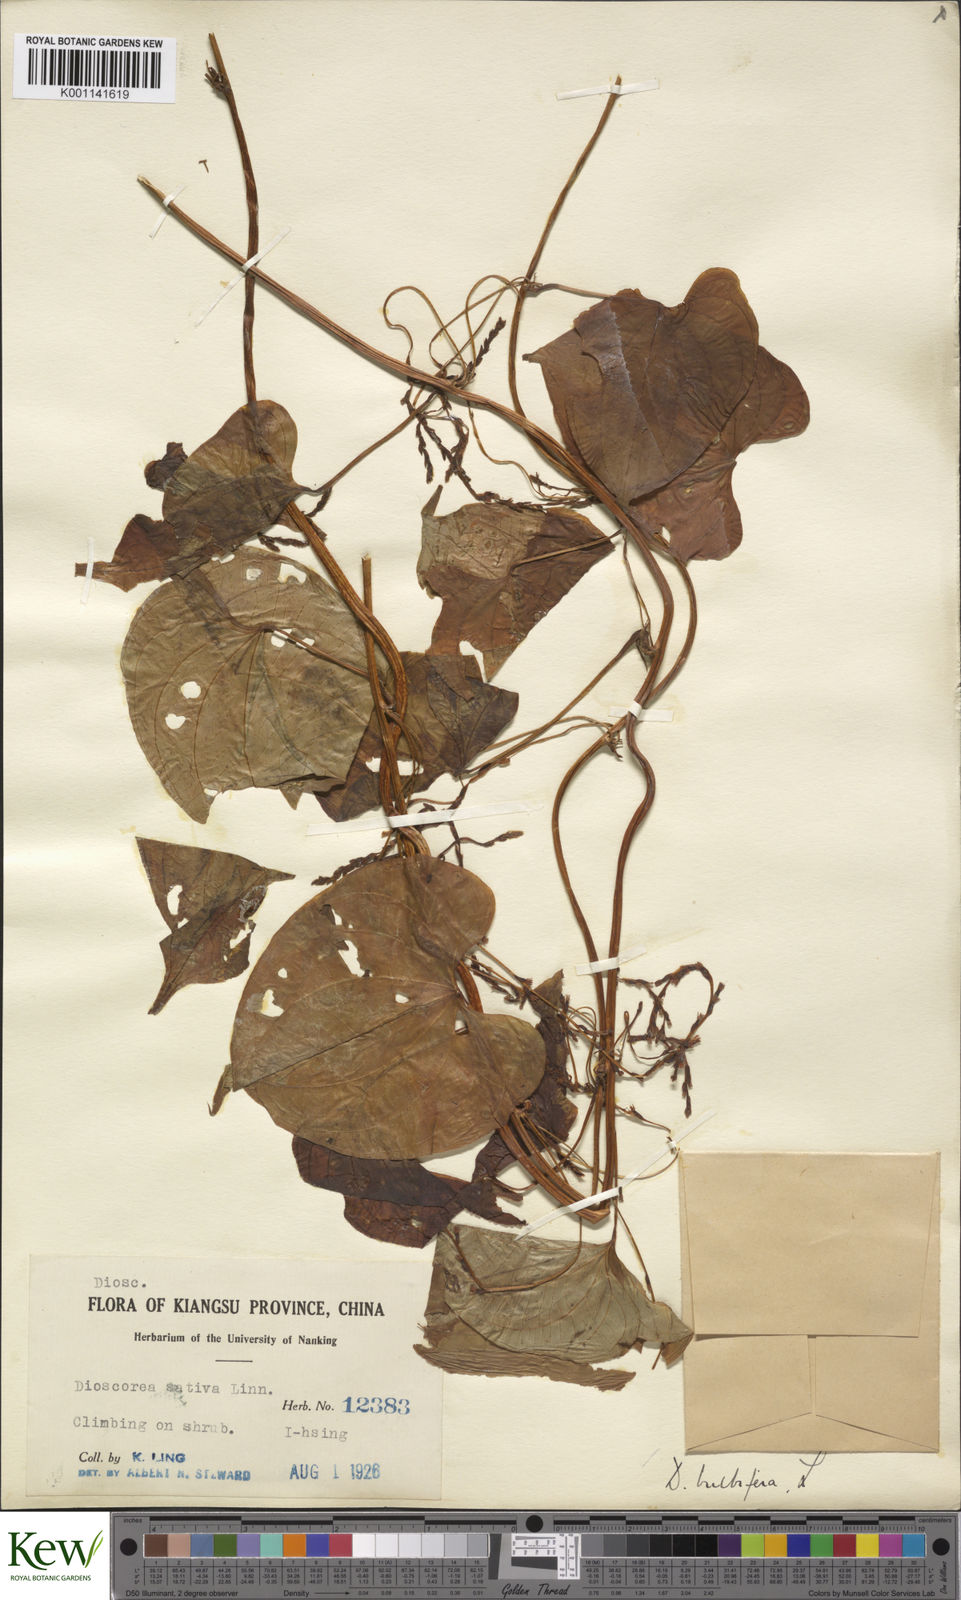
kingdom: Plantae
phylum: Tracheophyta
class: Liliopsida
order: Dioscoreales
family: Dioscoreaceae
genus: Dioscorea
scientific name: Dioscorea bulbifera
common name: Air yam
